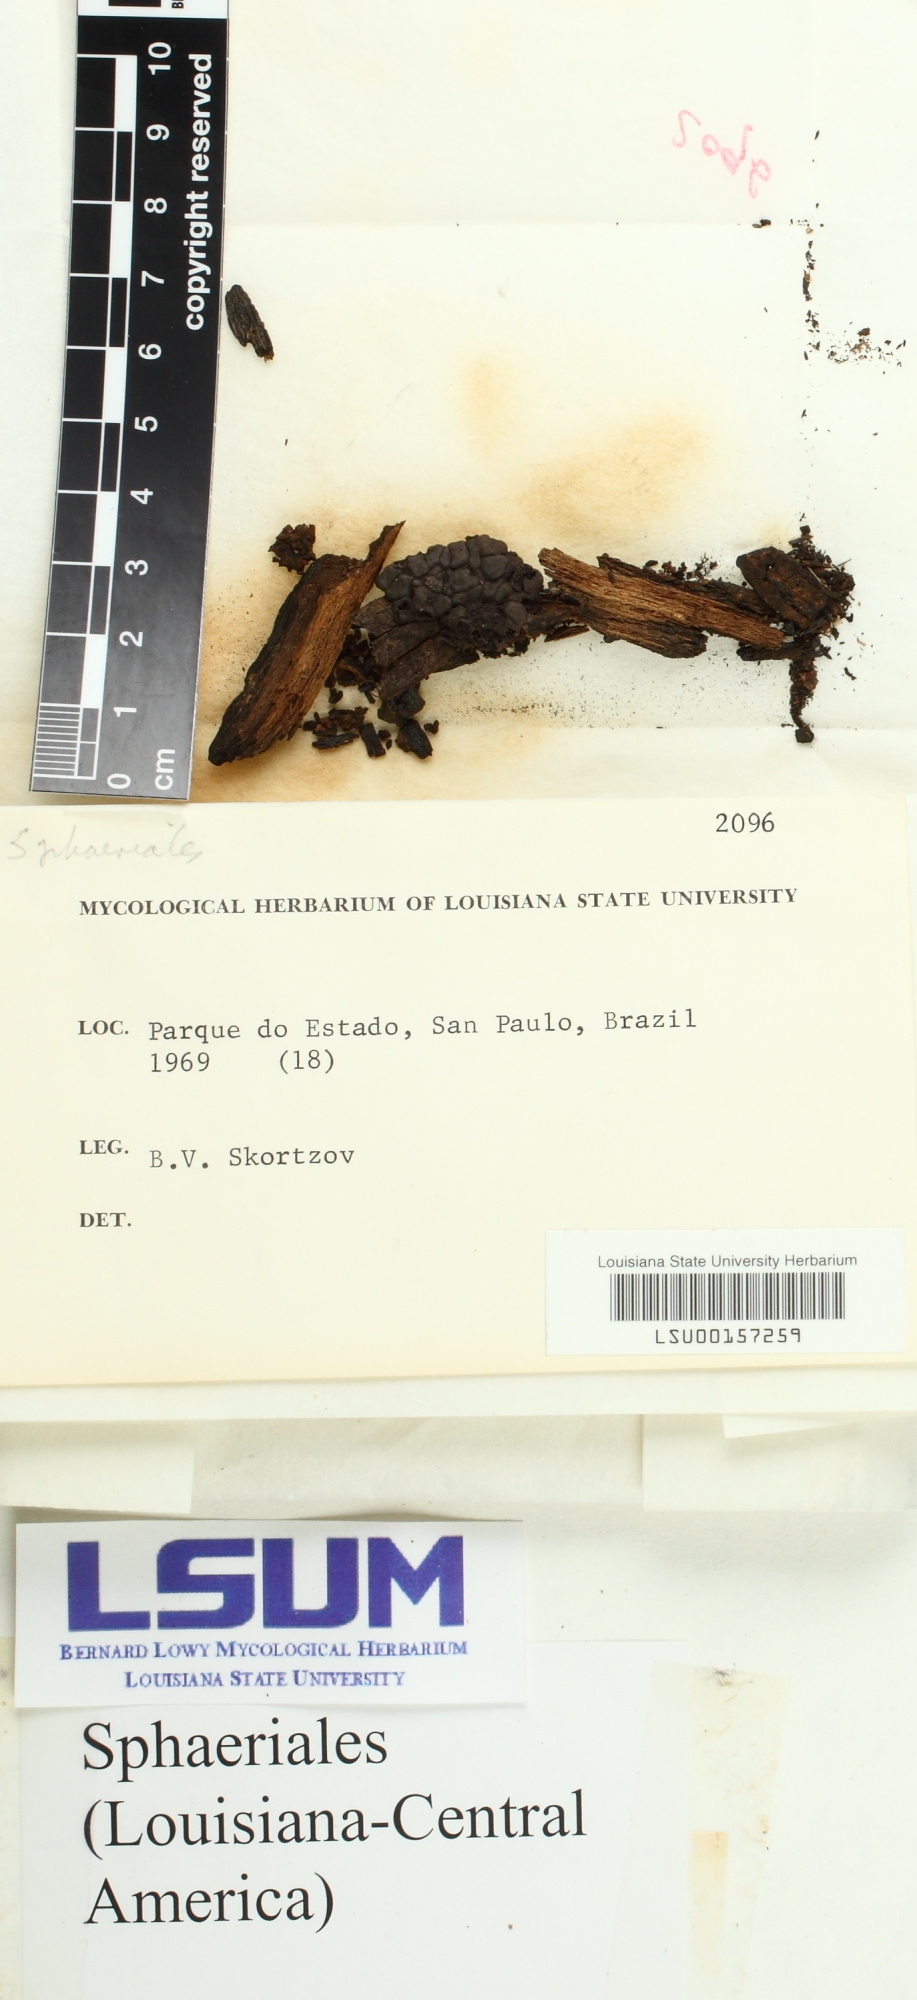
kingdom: Fungi
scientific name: Fungi
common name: Fungi
